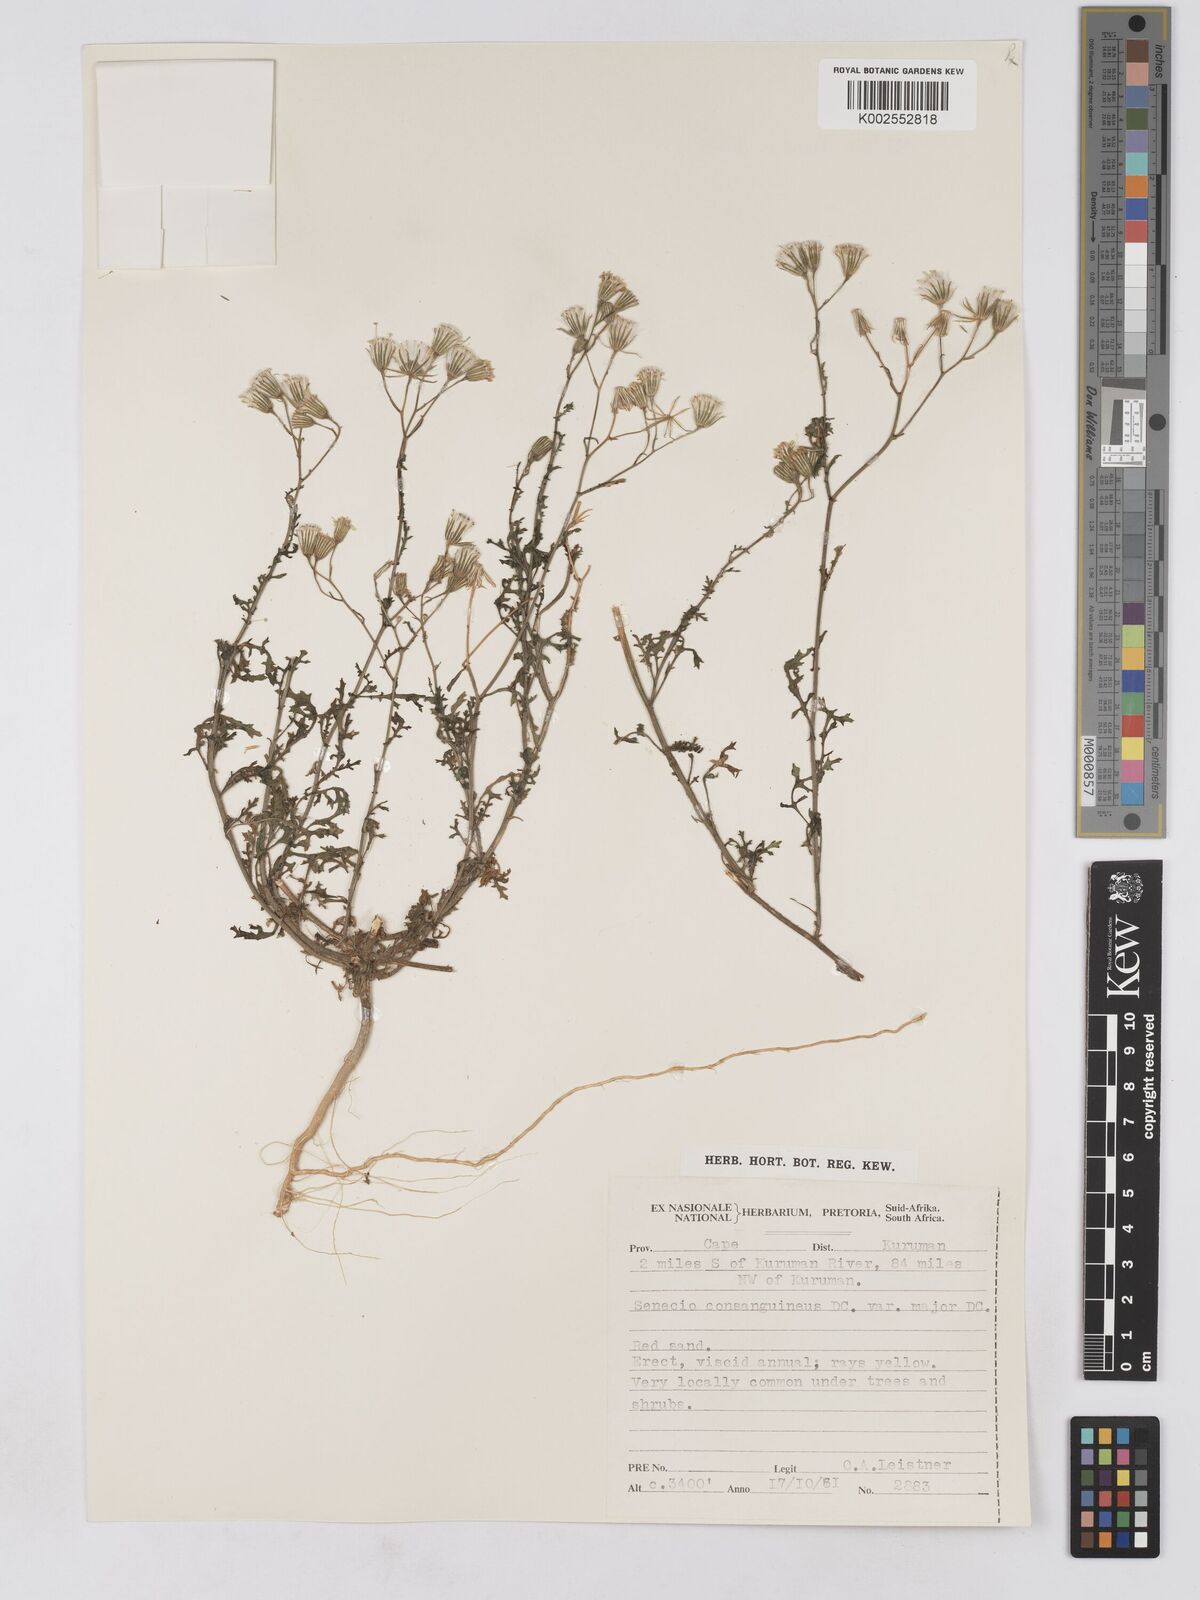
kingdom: Plantae
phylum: Tracheophyta
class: Magnoliopsida
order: Asterales
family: Asteraceae
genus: Senecio
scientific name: Senecio consanguineus
